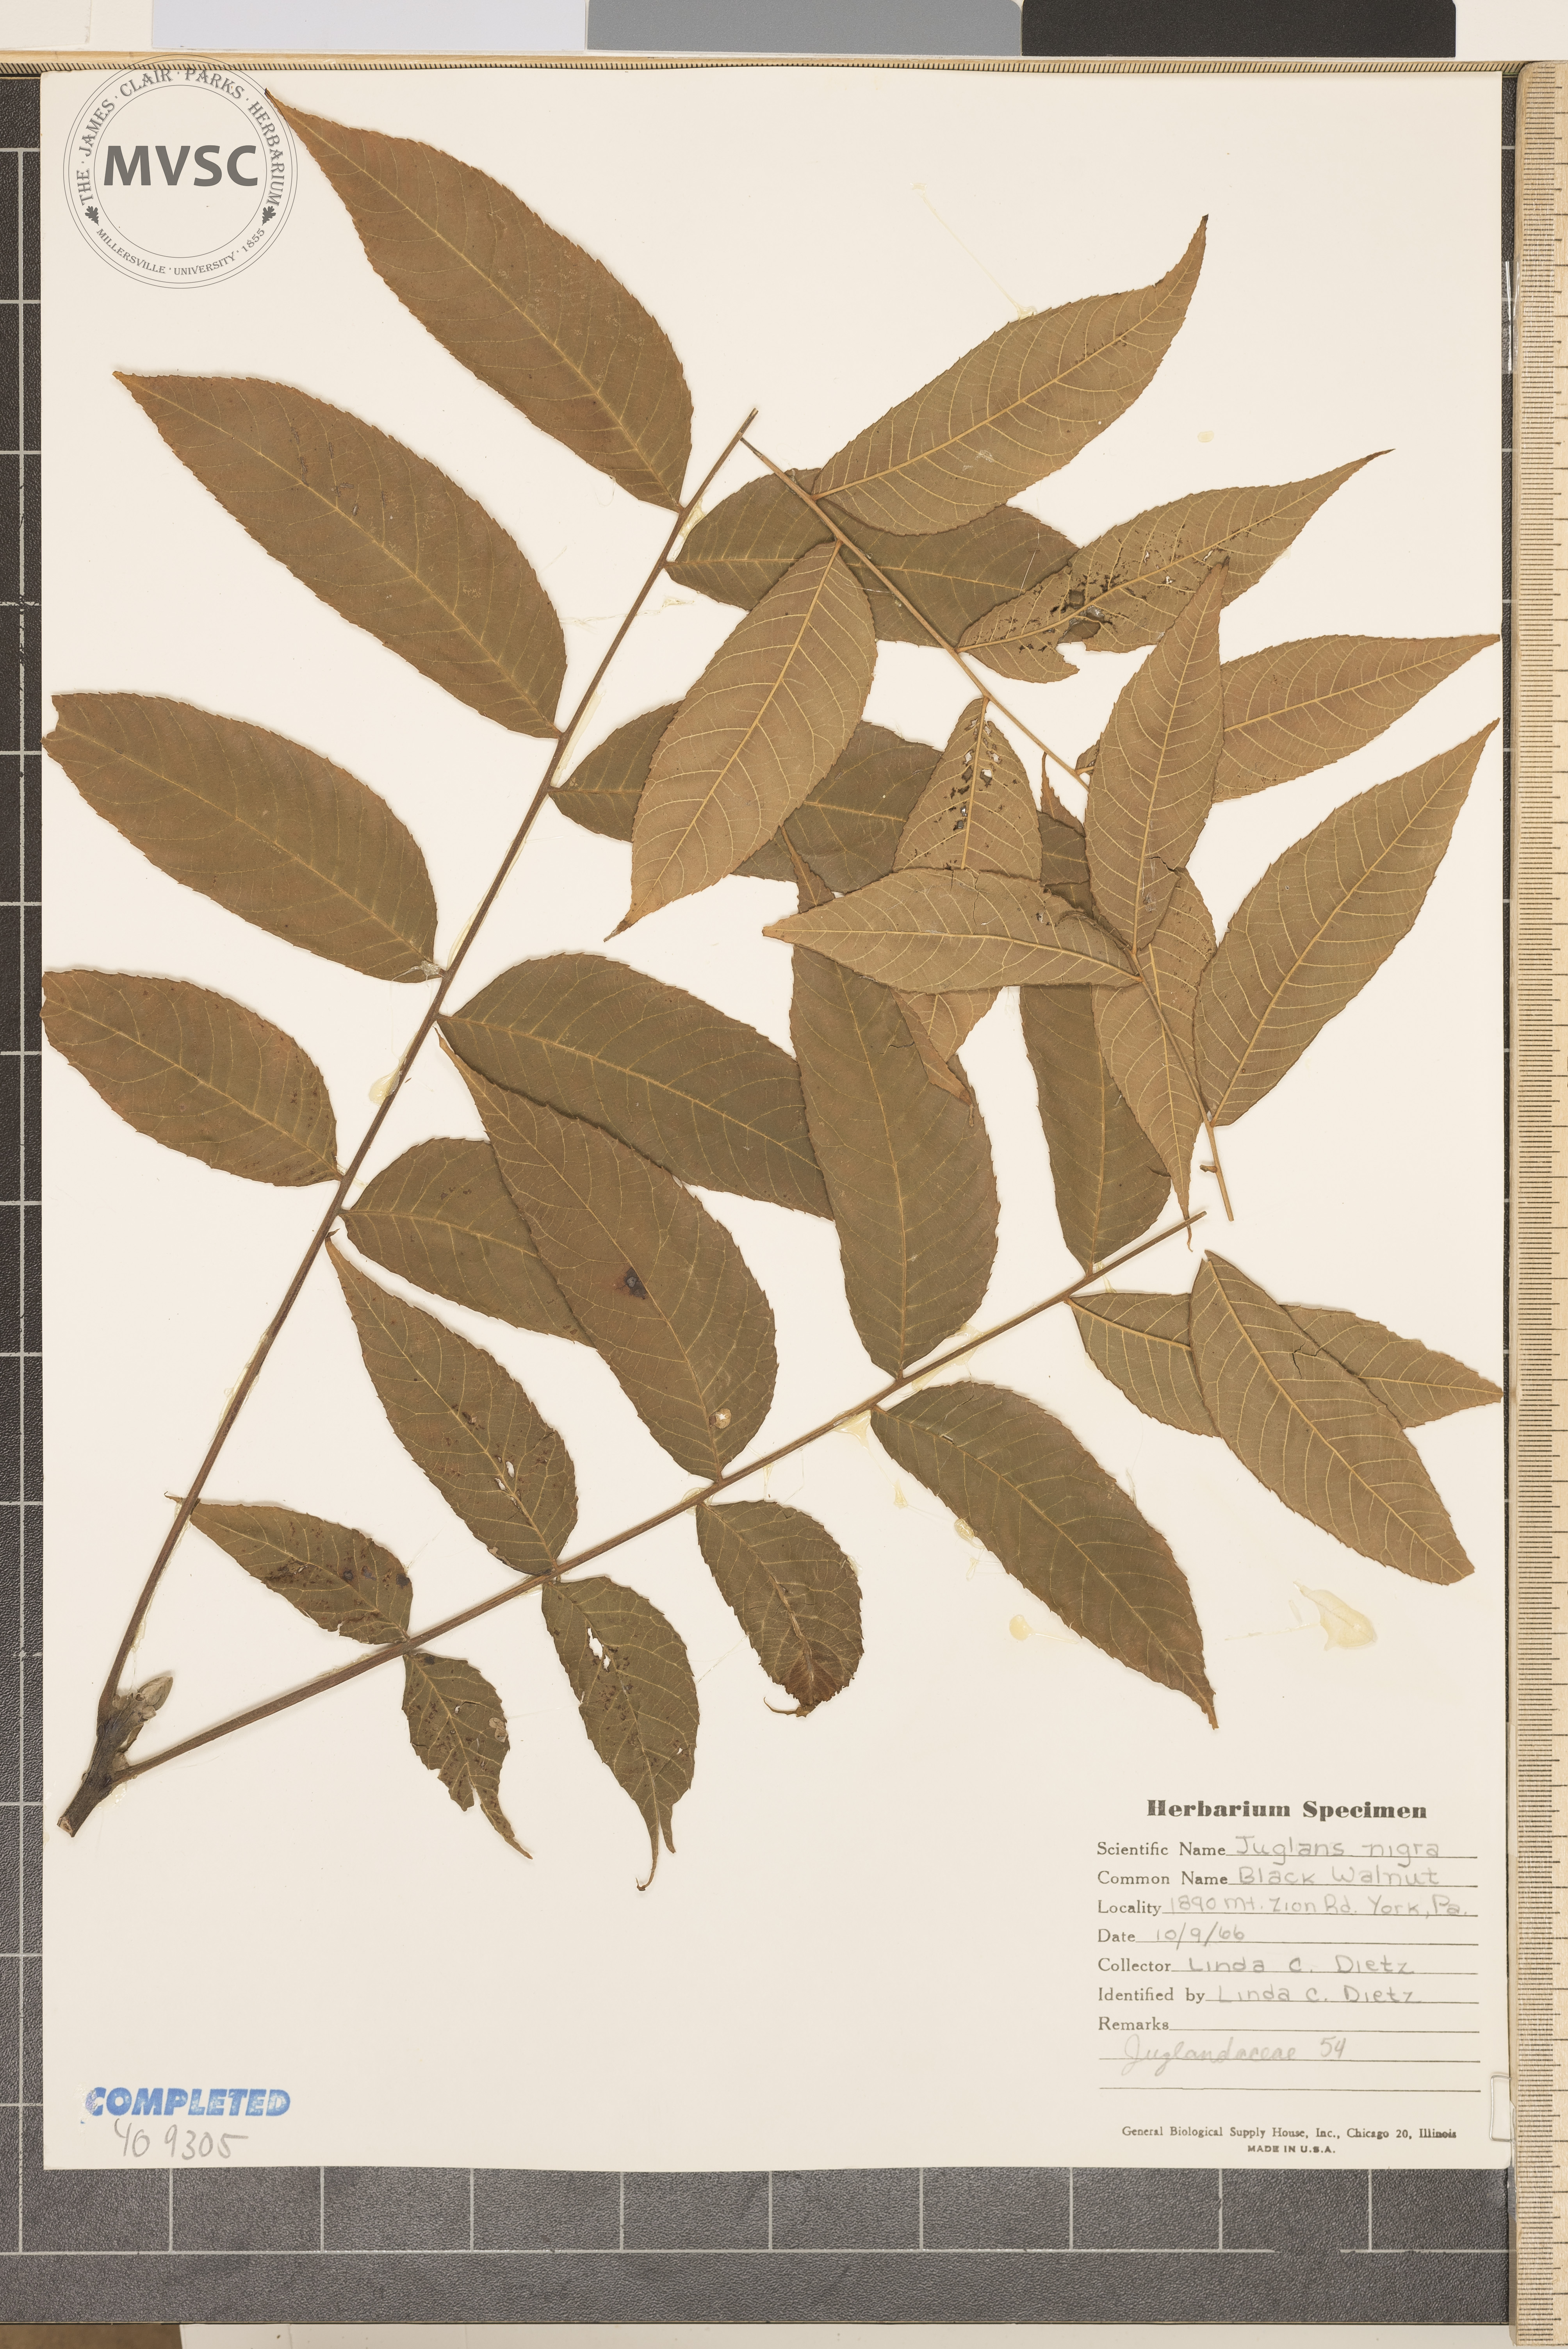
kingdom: Plantae
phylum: Tracheophyta
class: Magnoliopsida
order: Fagales
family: Juglandaceae
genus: Juglans
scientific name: Juglans nigra
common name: Black walnut
